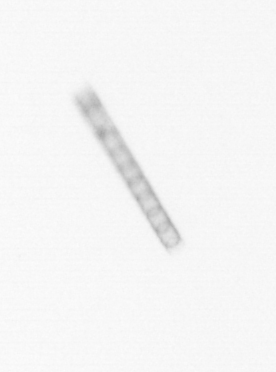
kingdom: Chromista
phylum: Ochrophyta
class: Bacillariophyceae
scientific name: Bacillariophyceae
